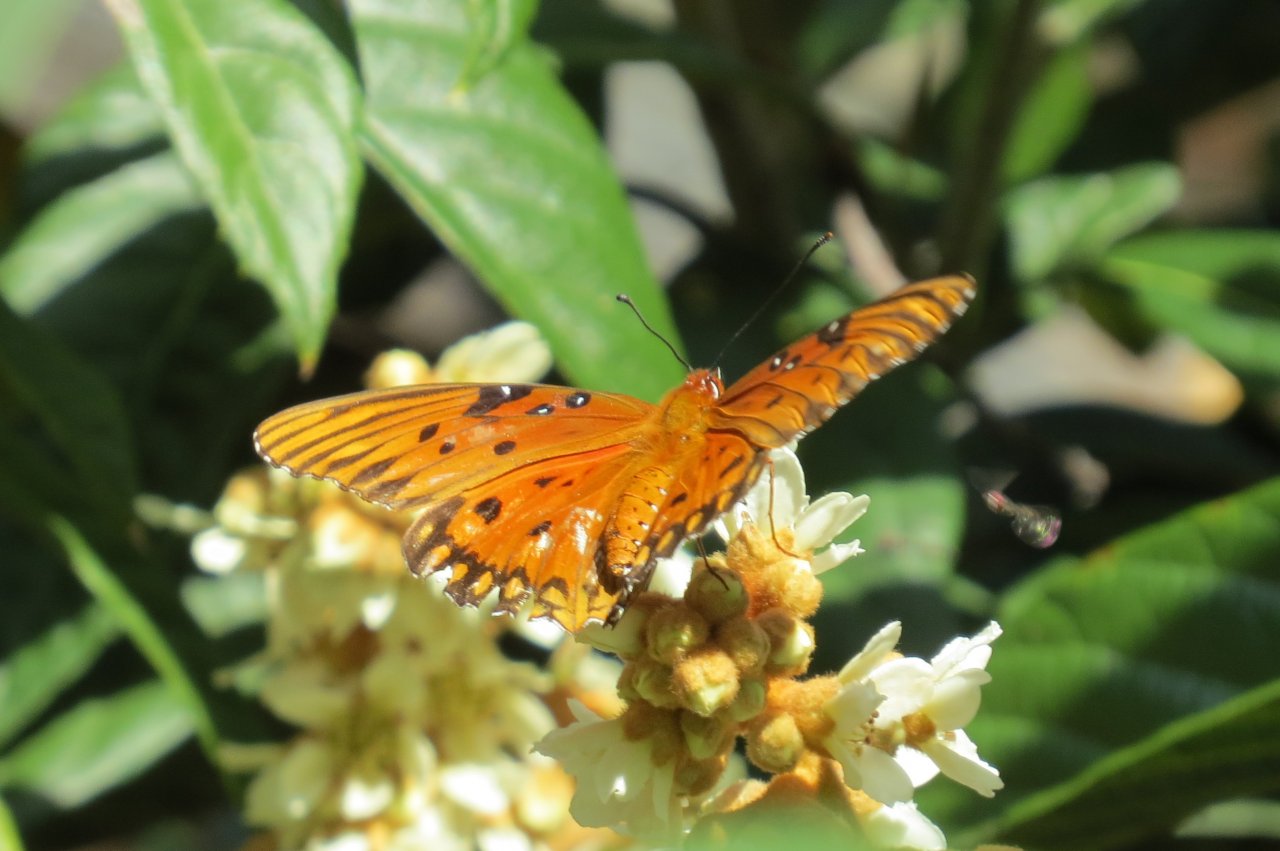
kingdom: Animalia
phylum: Arthropoda
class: Insecta
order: Lepidoptera
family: Nymphalidae
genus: Dione
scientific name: Dione vanillae
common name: Gulf Fritillary
